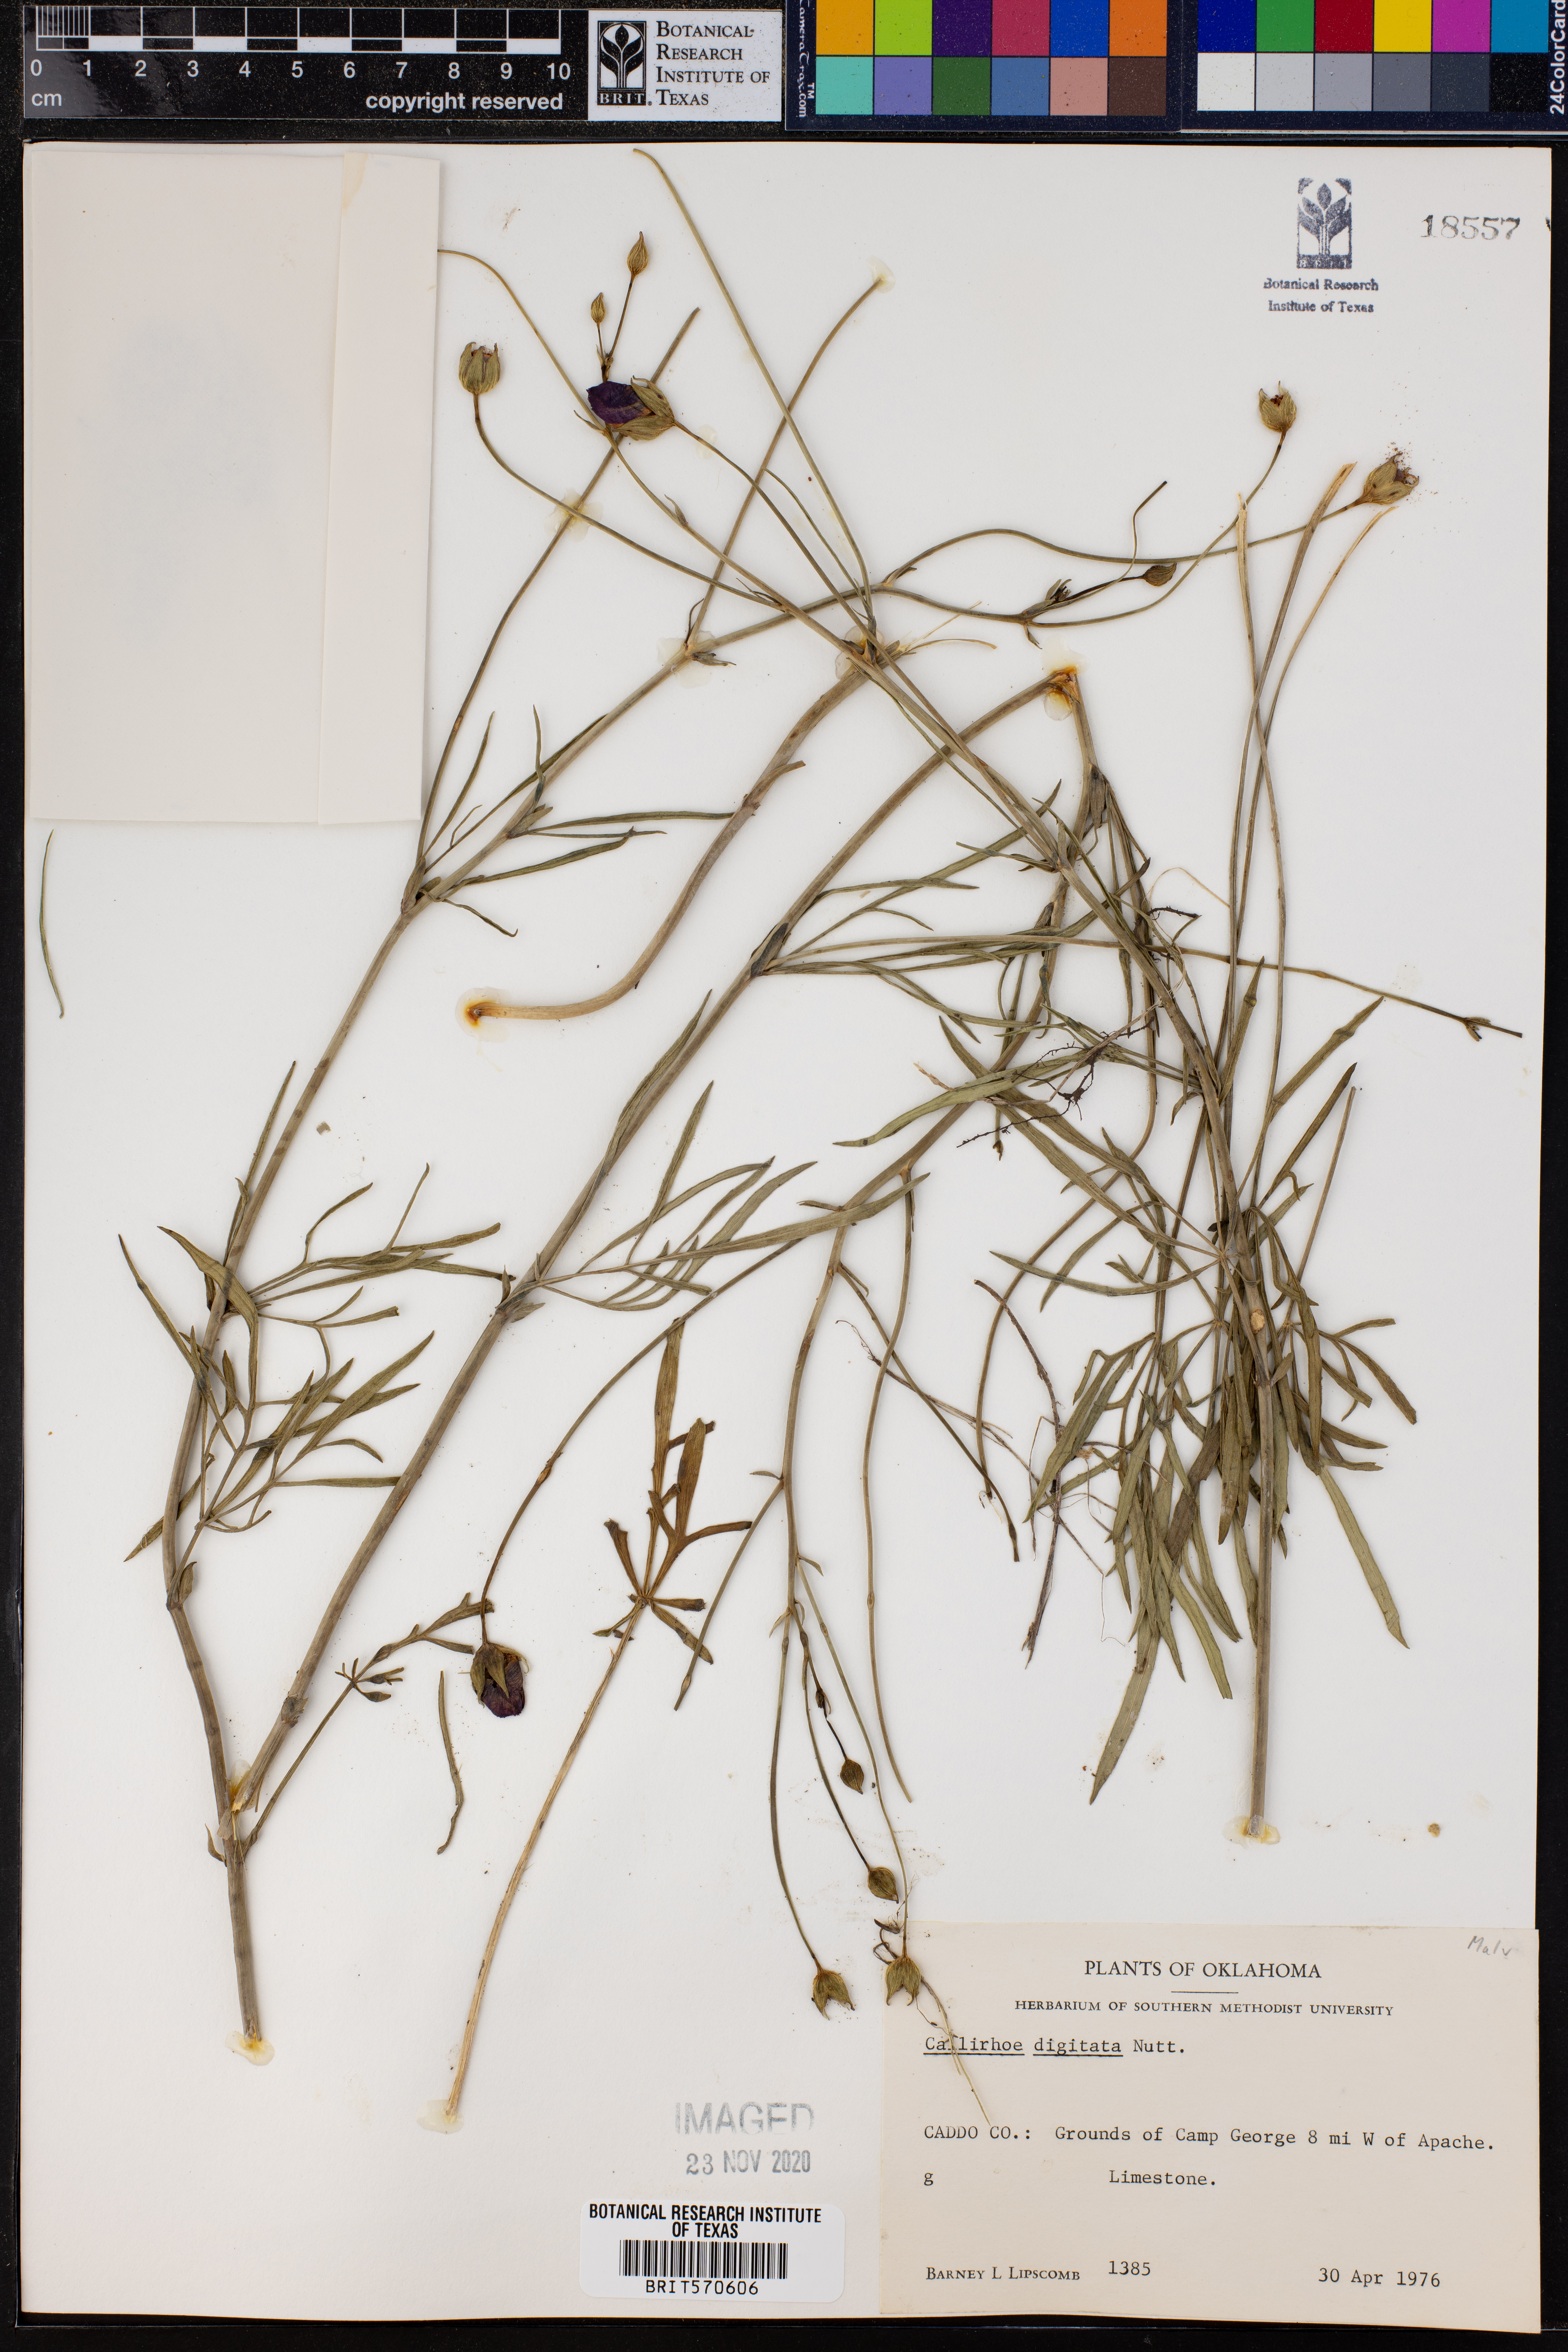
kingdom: Plantae
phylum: Tracheophyta
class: Magnoliopsida
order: Malvales
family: Malvaceae
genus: Callirhoe
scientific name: Callirhoe digitata
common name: Finger poppy-mallow
